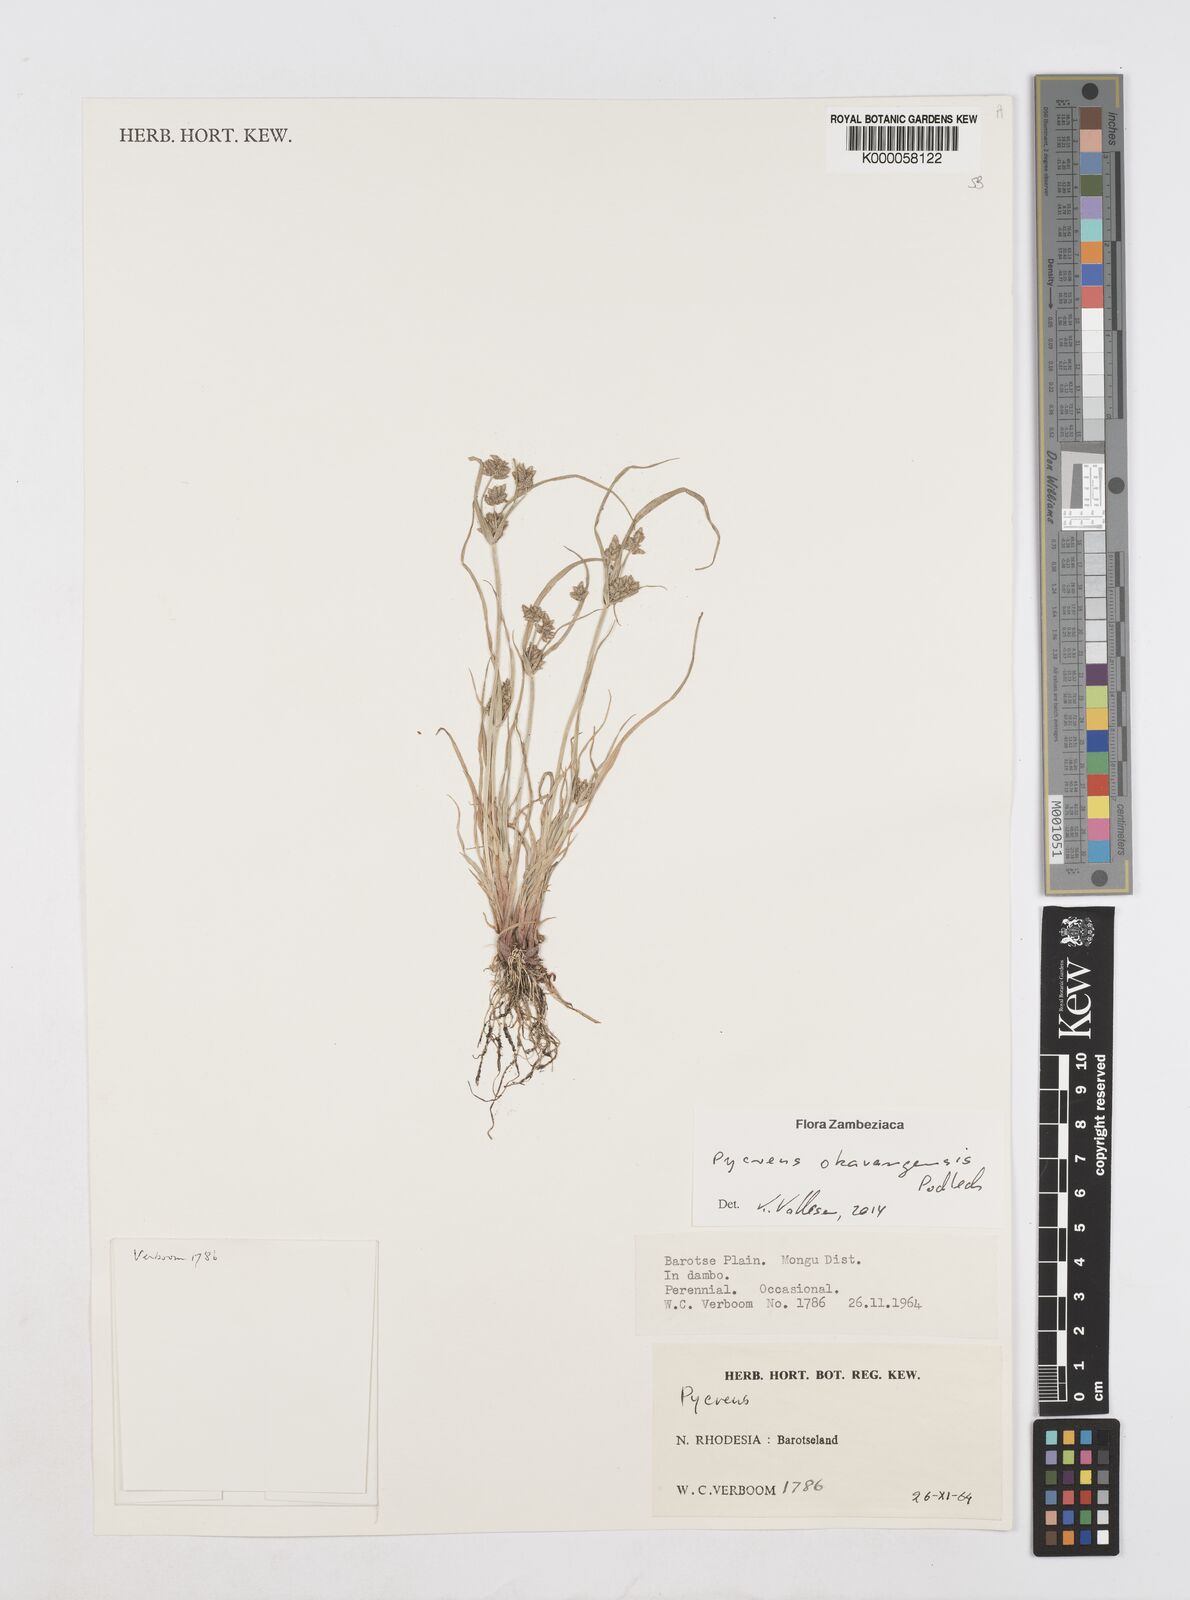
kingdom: Plantae
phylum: Tracheophyta
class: Liliopsida
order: Poales
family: Cyperaceae
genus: Cyperus
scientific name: Cyperus okavangensis
